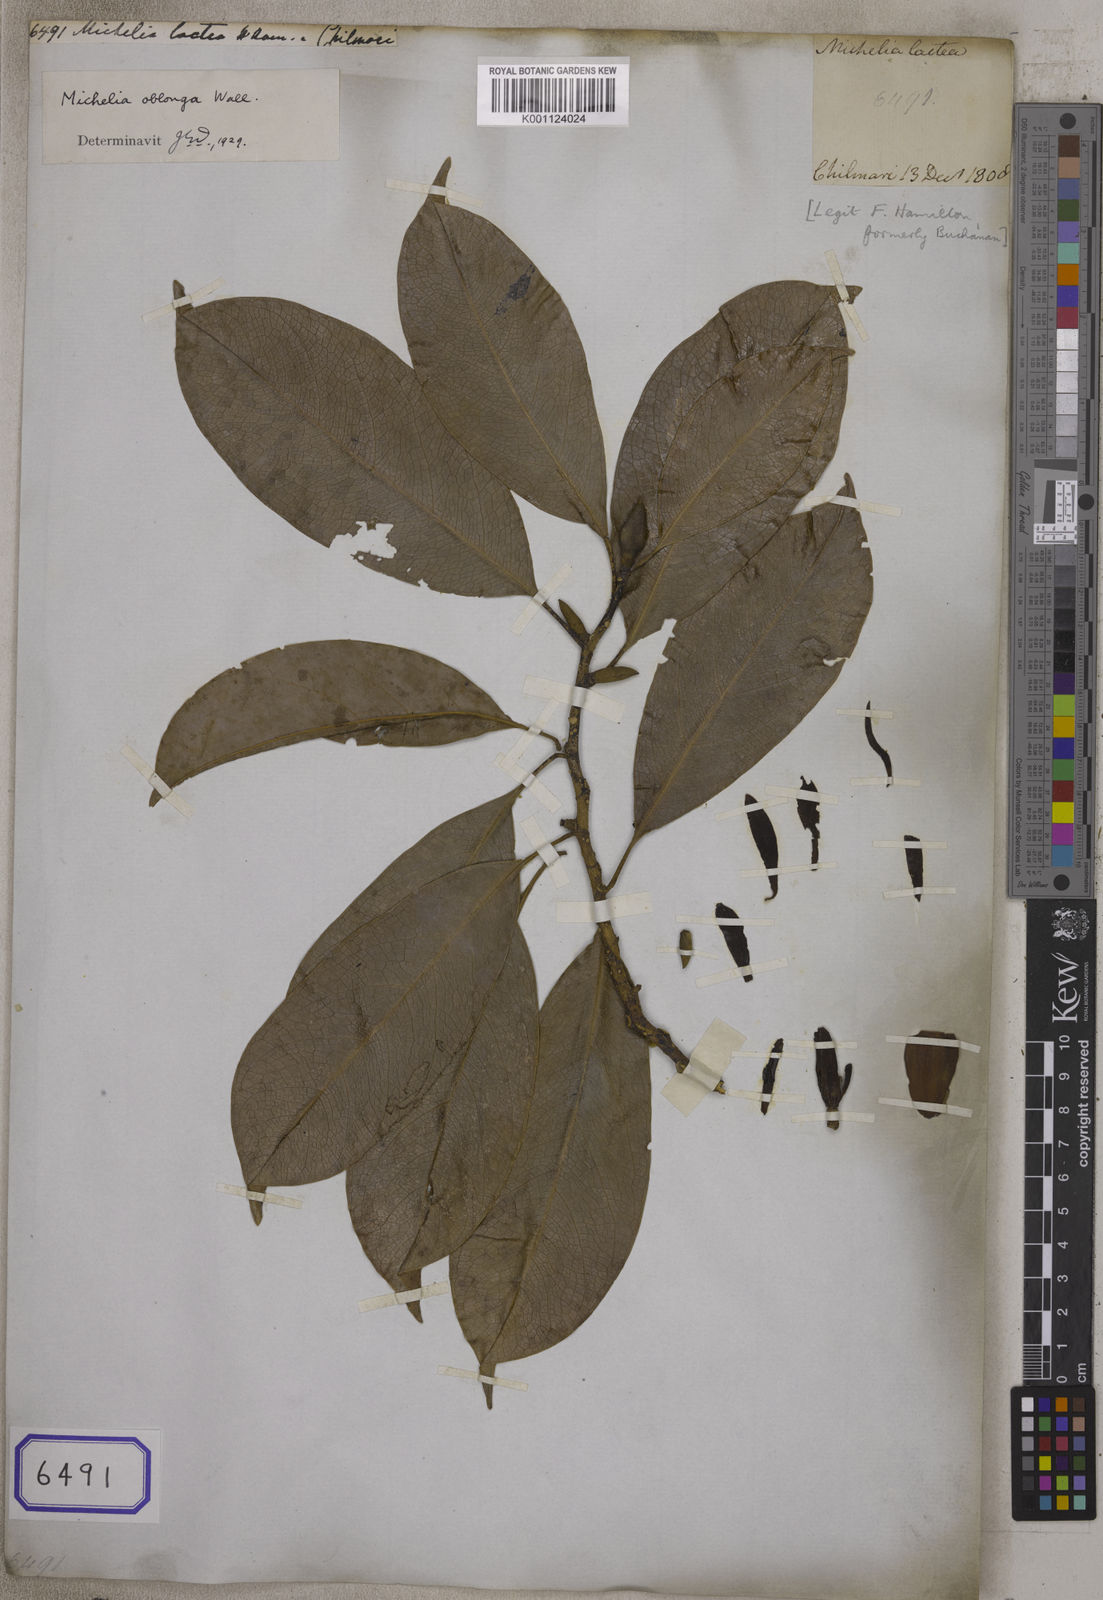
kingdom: Plantae
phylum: Tracheophyta
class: Magnoliopsida
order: Magnoliales
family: Magnoliaceae
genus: Magnolia
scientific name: Magnolia oblonga
